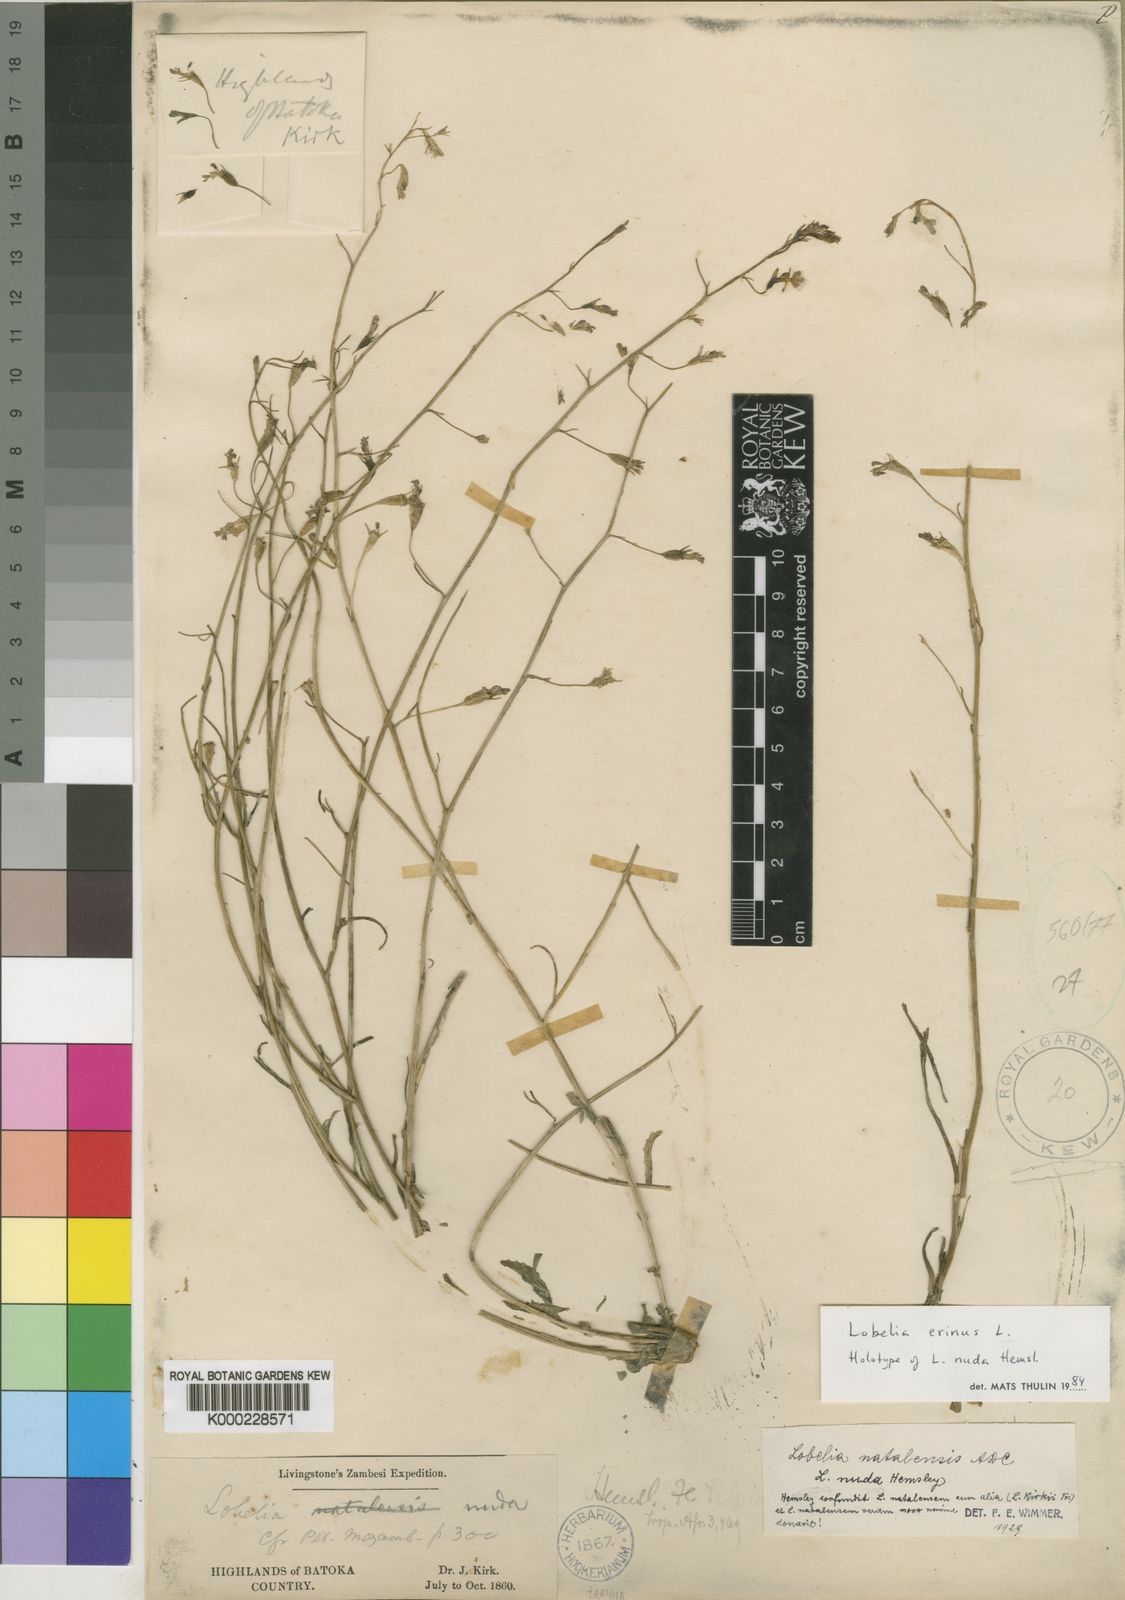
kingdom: Plantae
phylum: Tracheophyta
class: Magnoliopsida
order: Asterales
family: Campanulaceae
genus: Lobelia
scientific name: Lobelia erinus
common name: Edging lobelia
